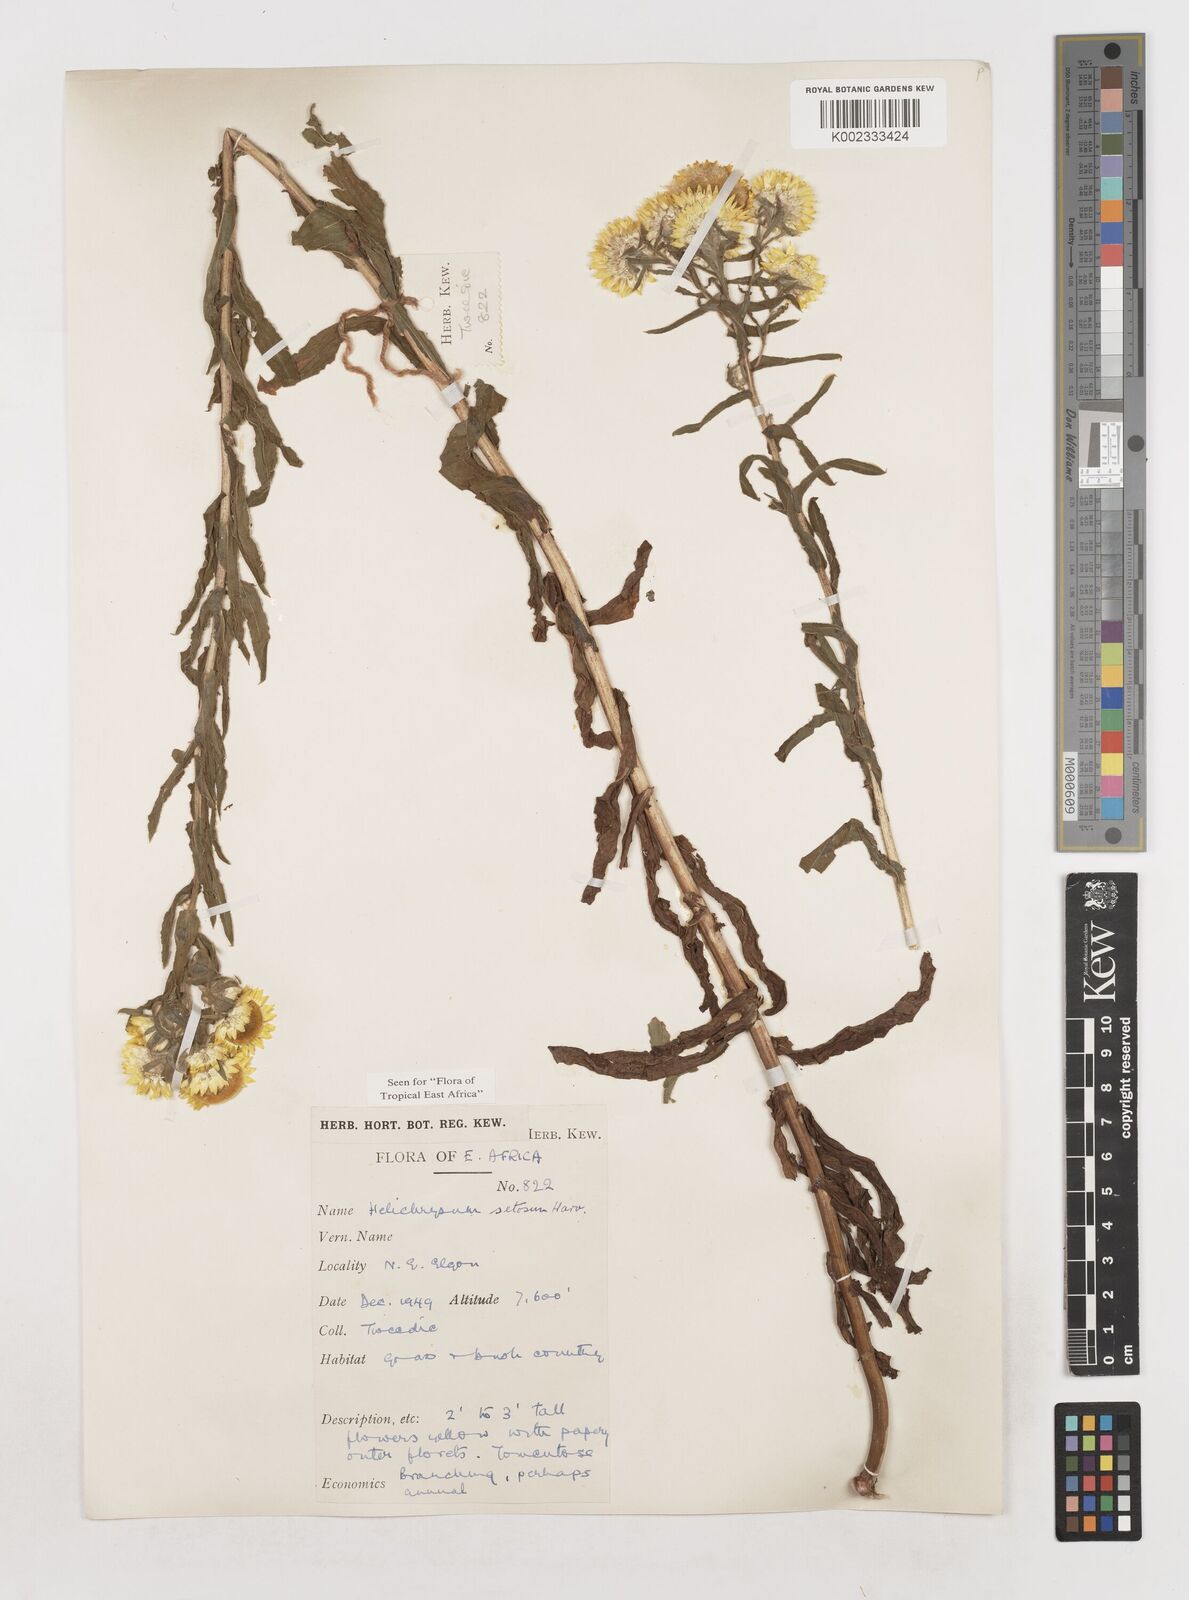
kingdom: Plantae
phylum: Tracheophyta
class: Magnoliopsida
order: Asterales
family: Asteraceae
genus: Helichrysum
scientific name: Helichrysum setosum
